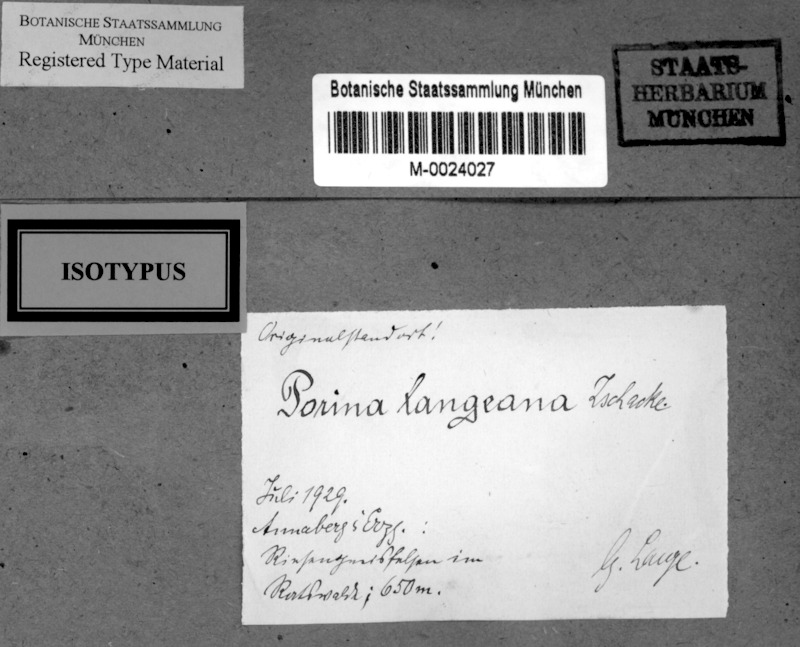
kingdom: Fungi
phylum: Ascomycota
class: Lecanoromycetes
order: Pertusariales
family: Pertusariaceae
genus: Porina
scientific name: Porina langeana
